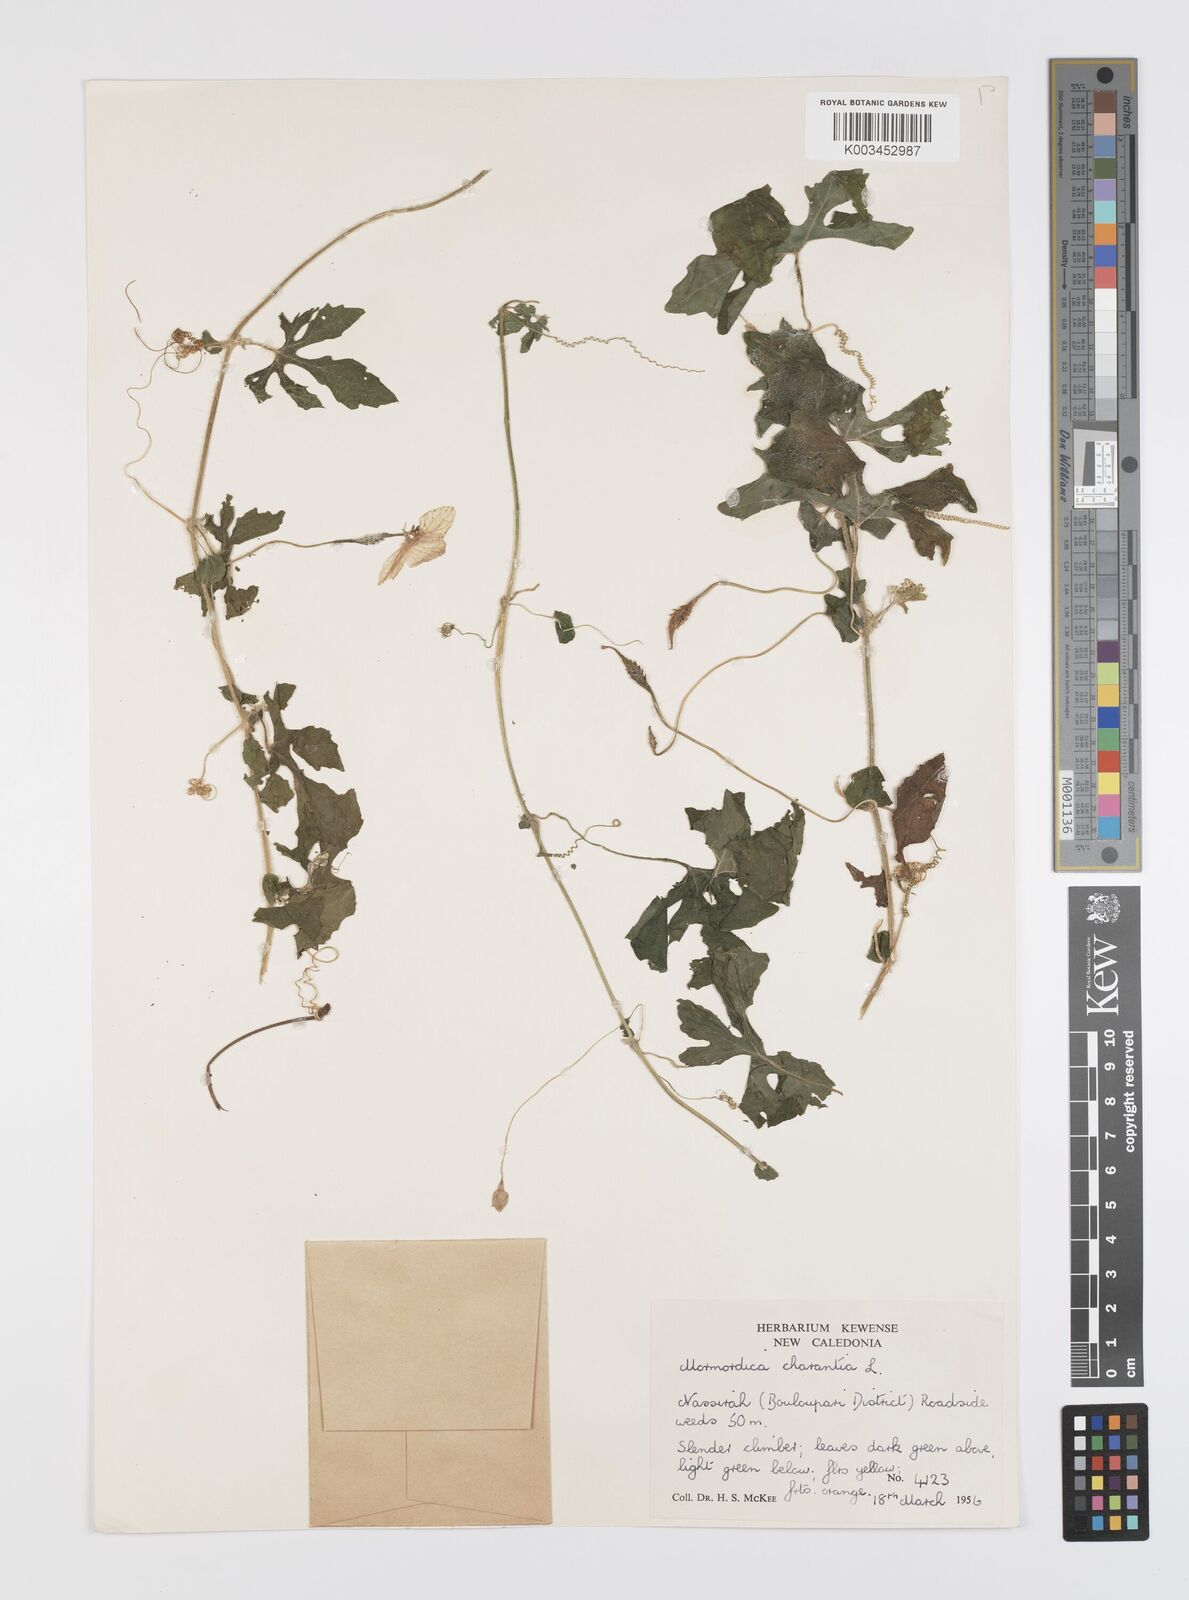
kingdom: Plantae
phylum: Tracheophyta
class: Magnoliopsida
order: Cucurbitales
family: Cucurbitaceae
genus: Momordica
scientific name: Momordica charantia
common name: Balsampear
